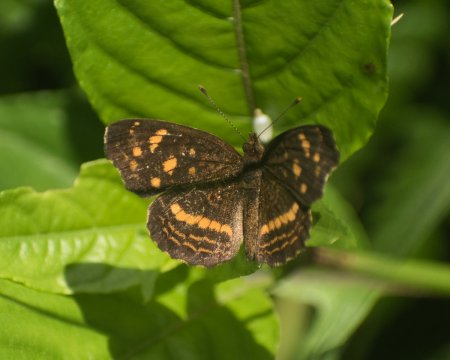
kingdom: Animalia
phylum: Arthropoda
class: Insecta
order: Lepidoptera
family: Nymphalidae
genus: Anthanassa
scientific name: Anthanassa drusilla
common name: Orange-patched Crescent
